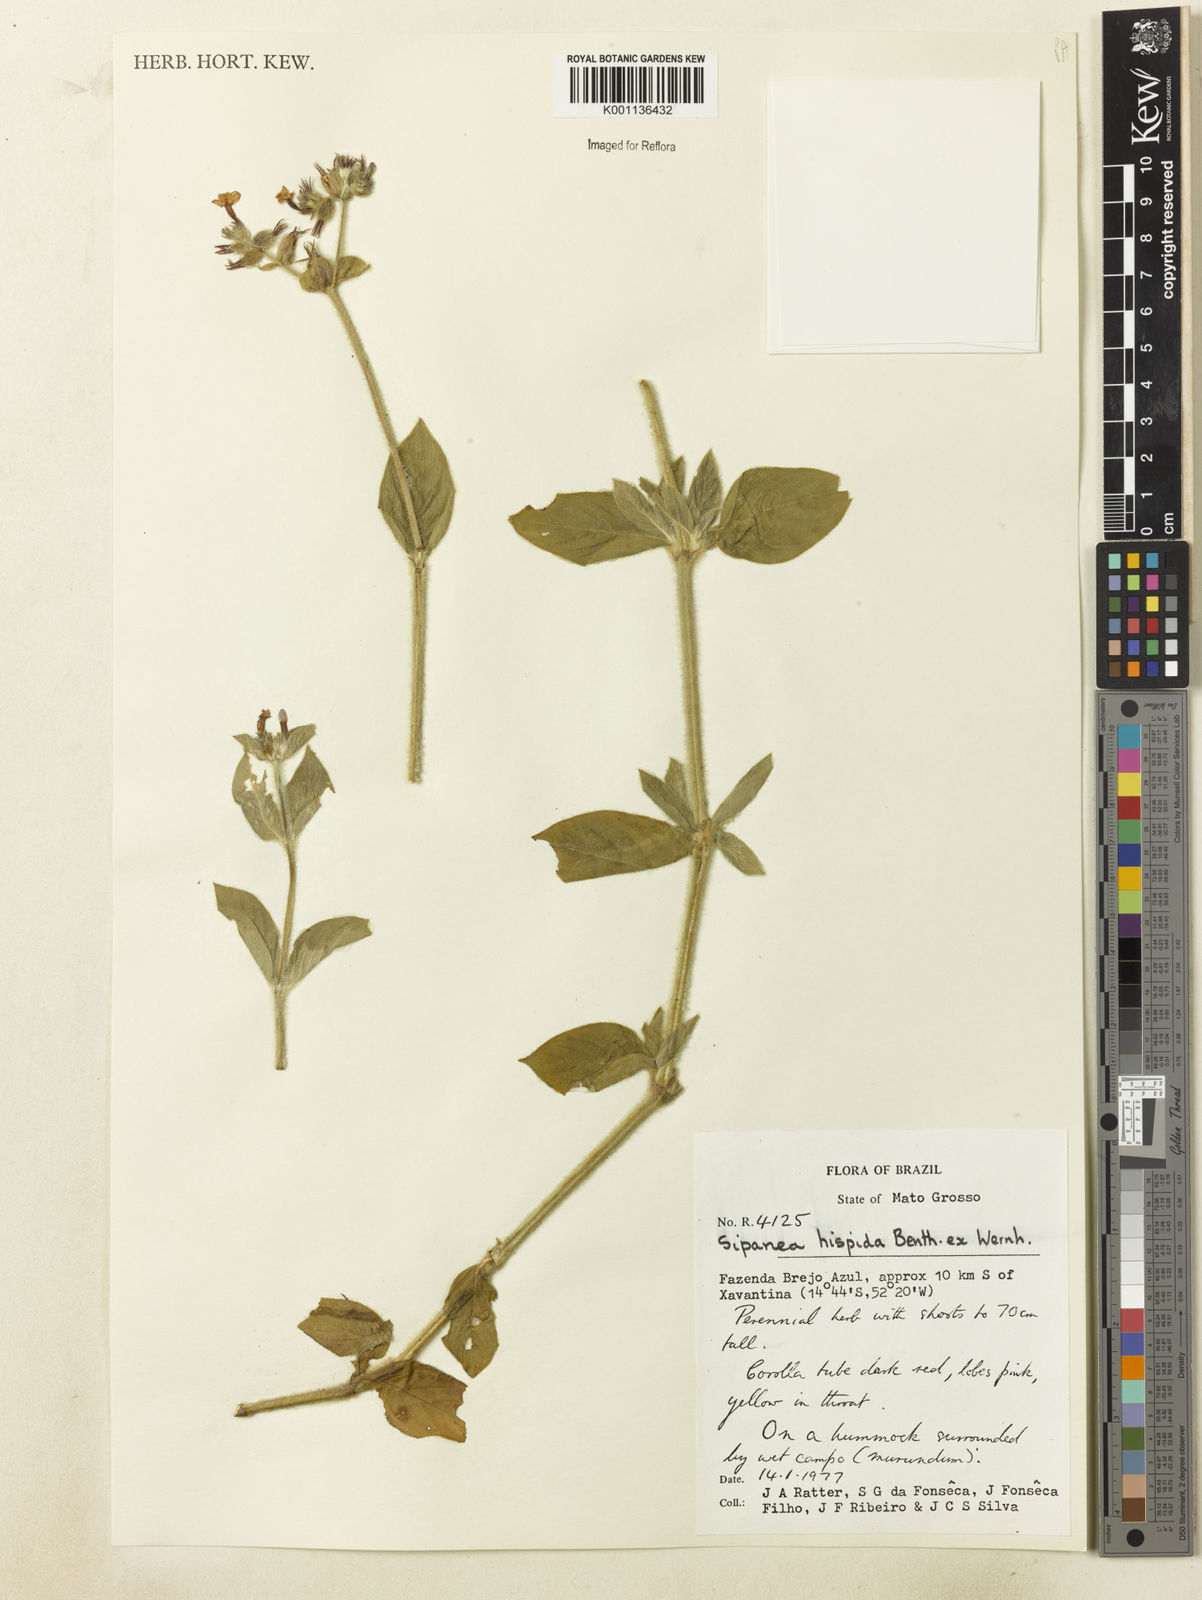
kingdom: Plantae
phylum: Tracheophyta
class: Magnoliopsida
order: Gentianales
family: Rubiaceae
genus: Sipanea
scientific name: Sipanea hispida
